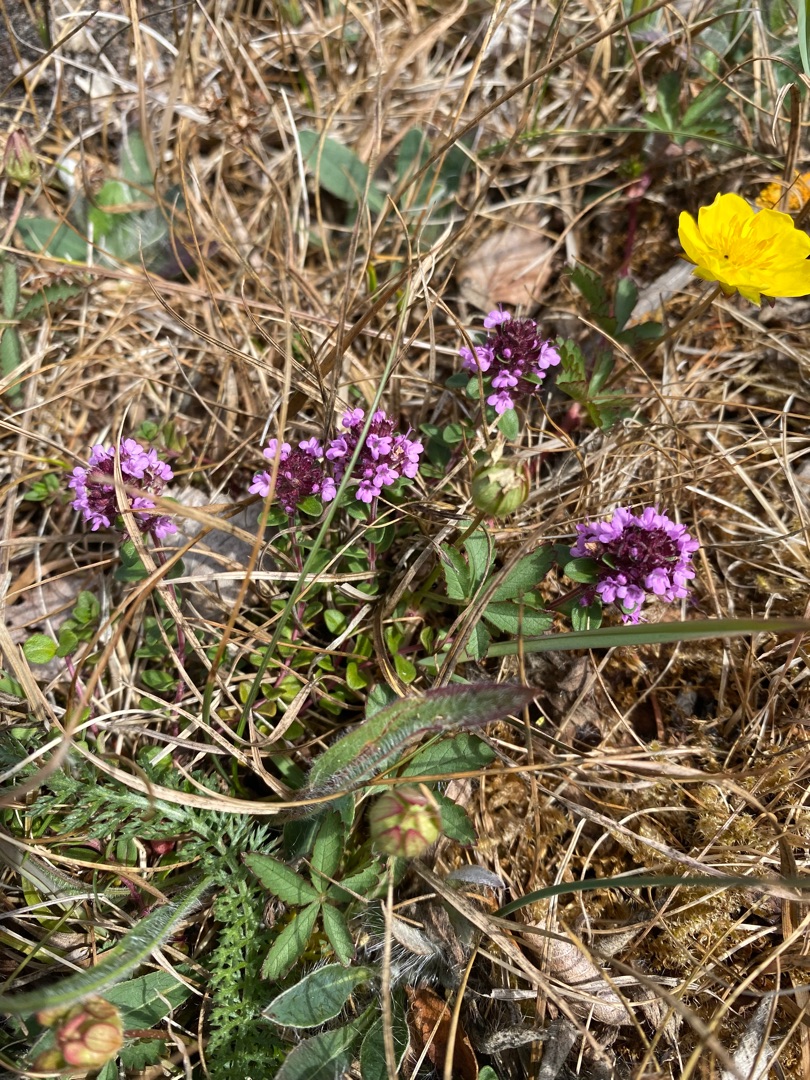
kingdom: Plantae
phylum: Tracheophyta
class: Magnoliopsida
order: Lamiales
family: Lamiaceae
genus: Thymus
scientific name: Thymus pulegioides
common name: Bredbladet timian
